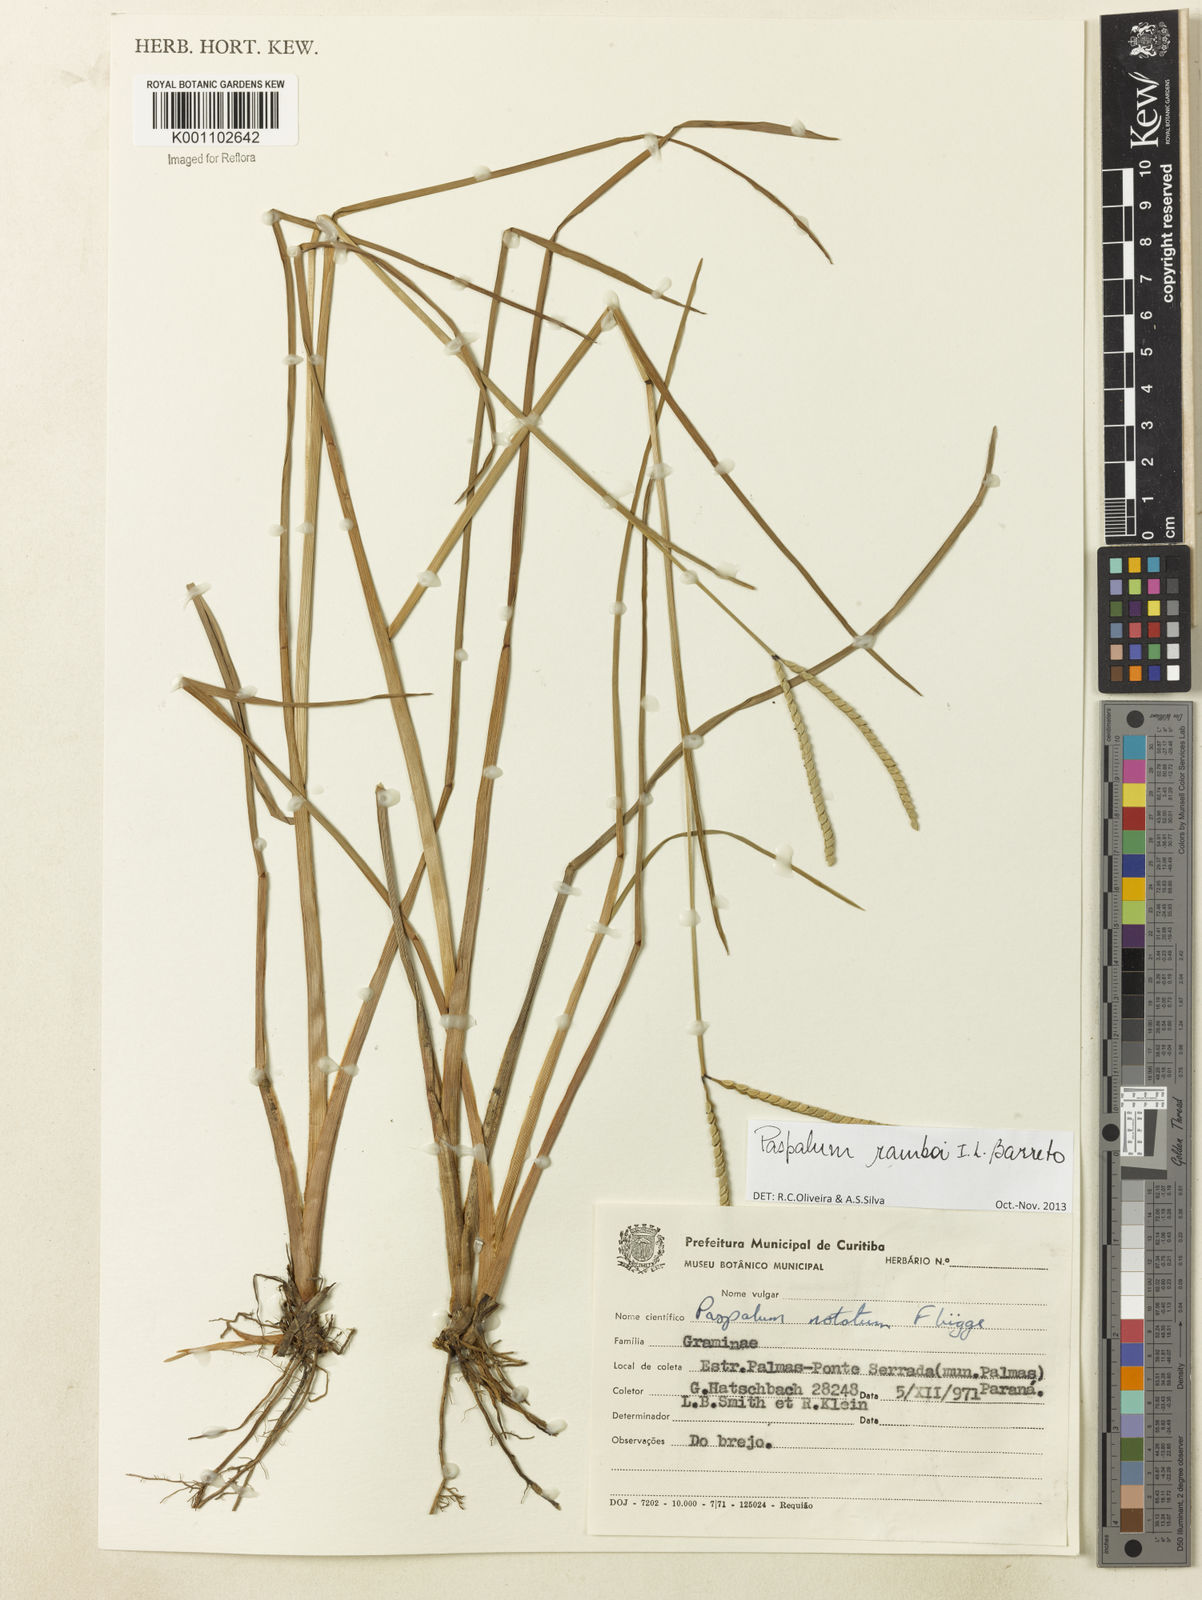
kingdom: Plantae
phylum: Tracheophyta
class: Liliopsida
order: Poales
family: Poaceae
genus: Paspalum
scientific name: Paspalum ramboi
